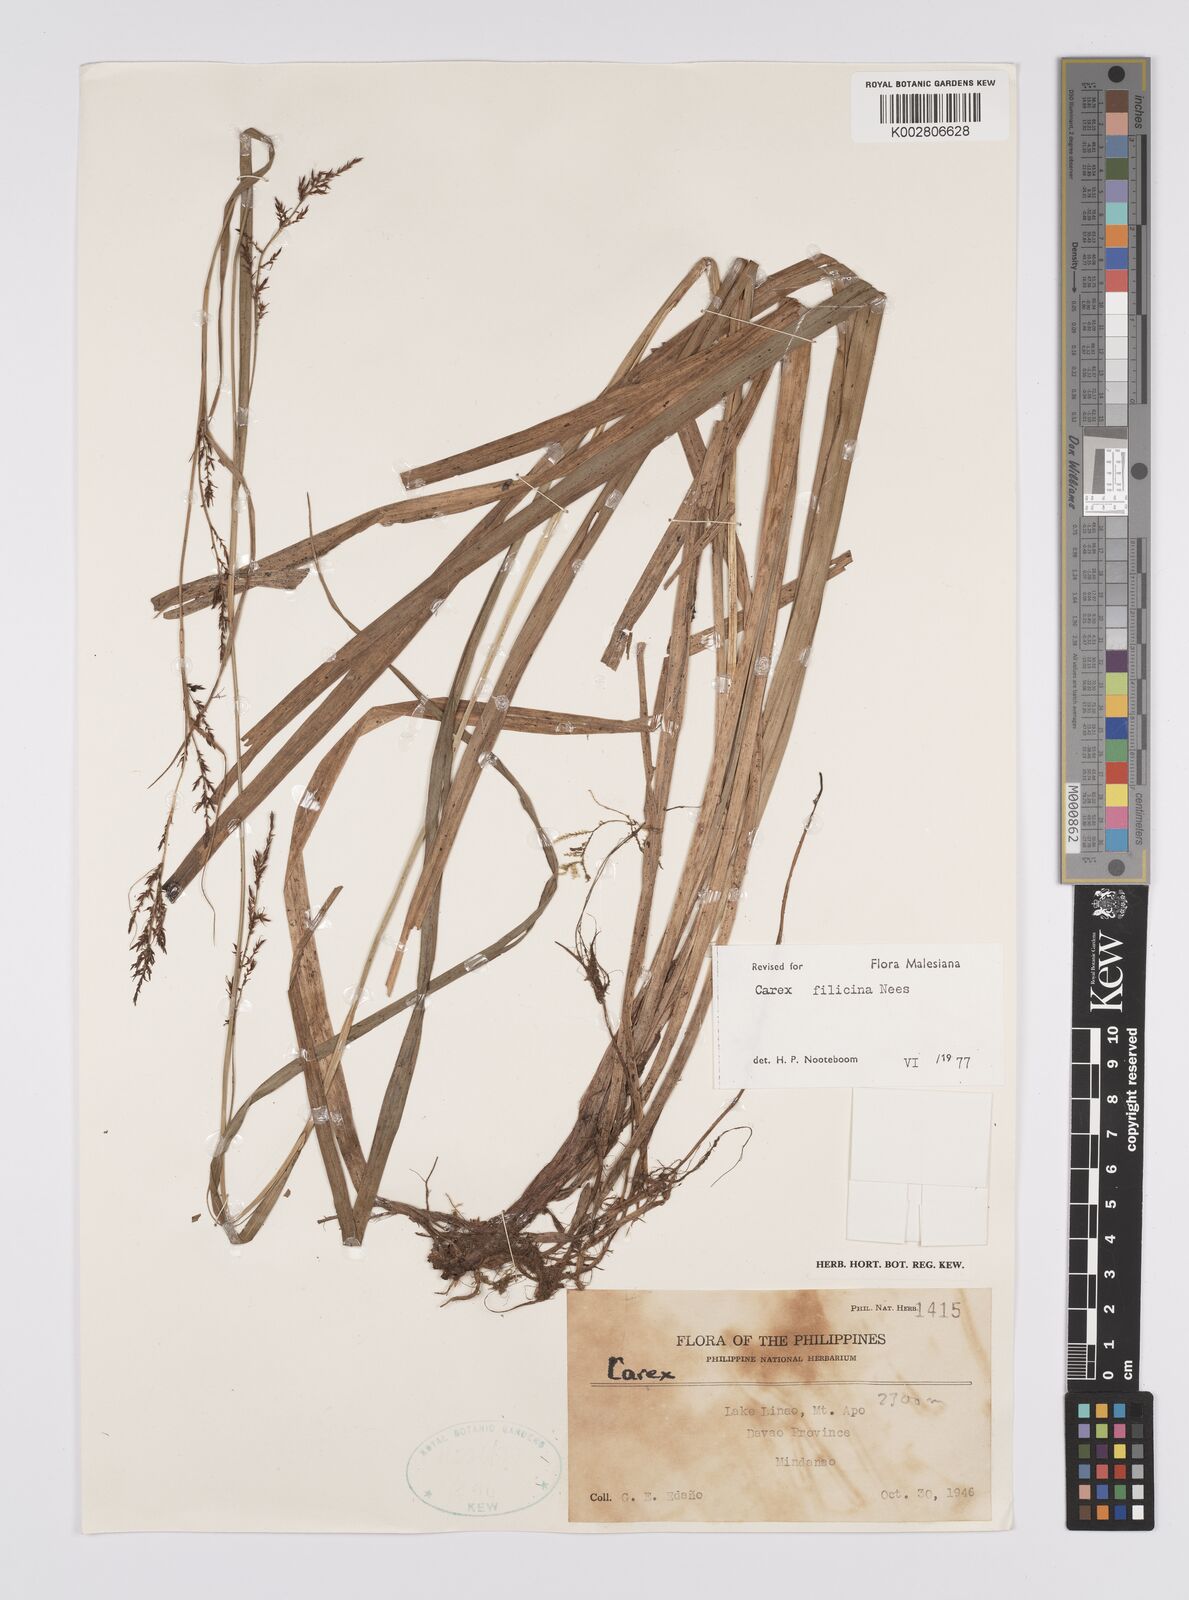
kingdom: Plantae
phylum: Tracheophyta
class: Liliopsida
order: Poales
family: Cyperaceae
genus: Carex
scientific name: Carex filicina
